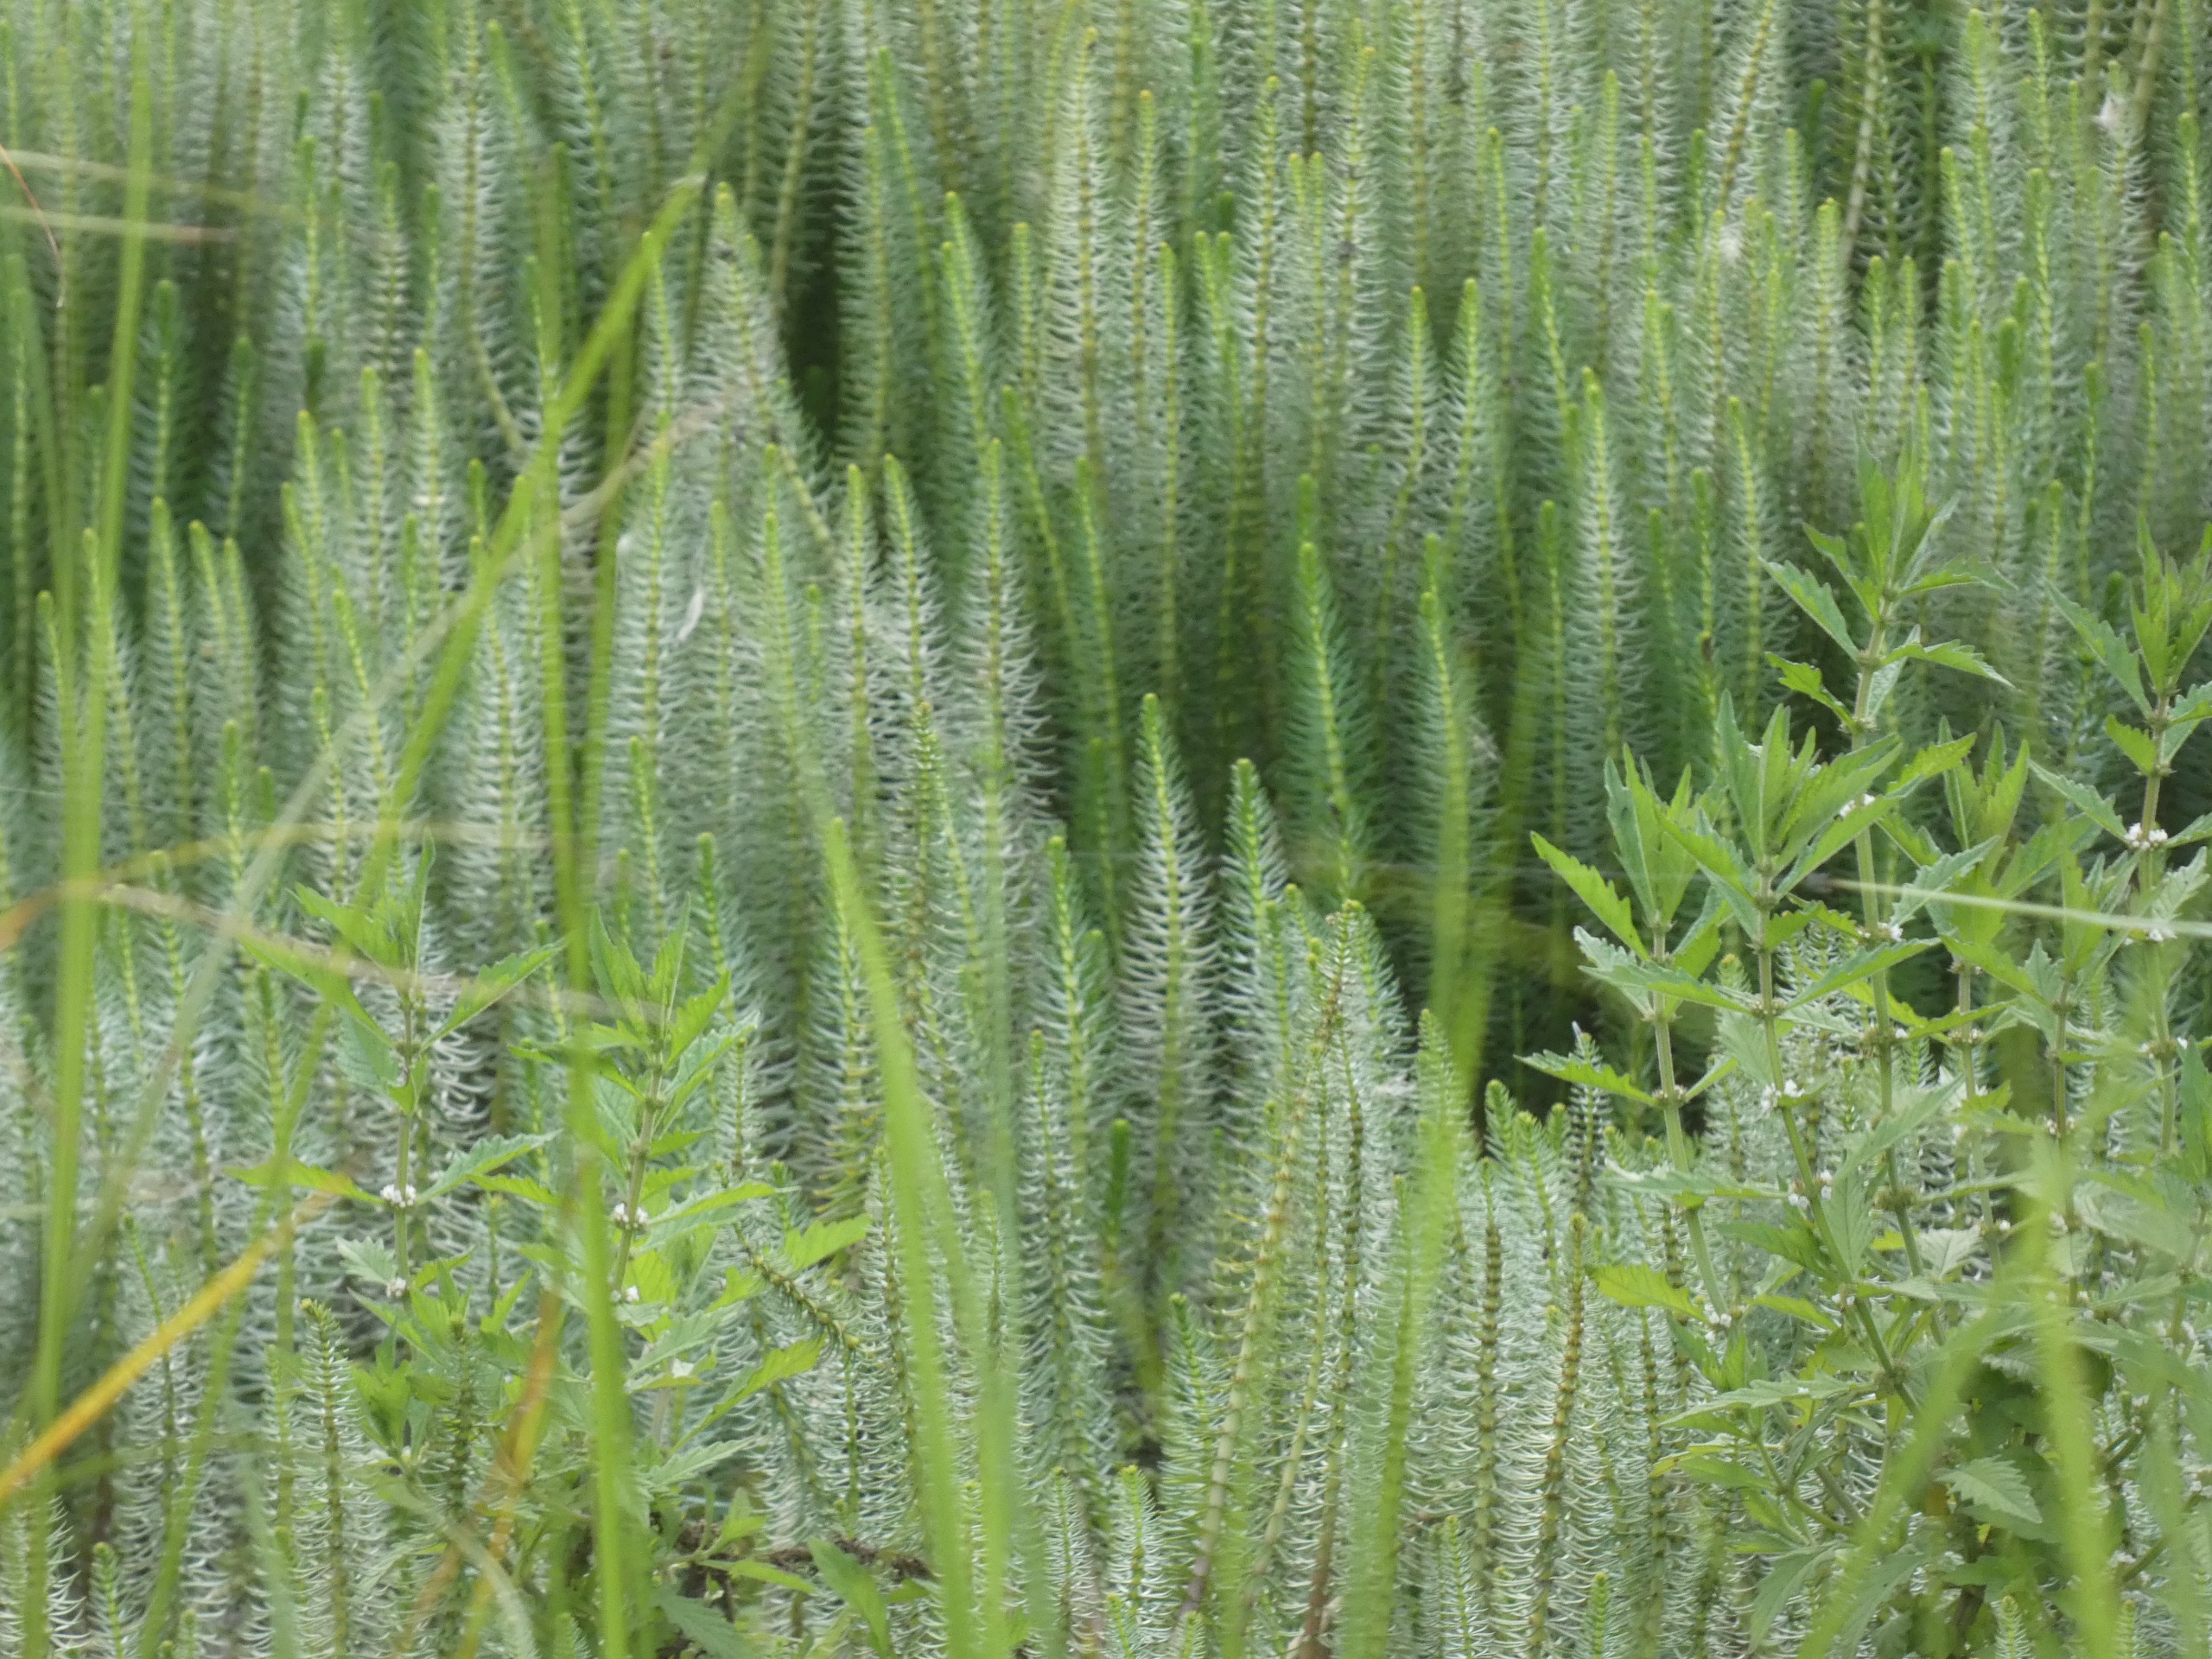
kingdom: Plantae
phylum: Tracheophyta
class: Magnoliopsida
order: Lamiales
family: Lamiaceae
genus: Lycopus
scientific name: Lycopus europaeus
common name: Sværtevæld
